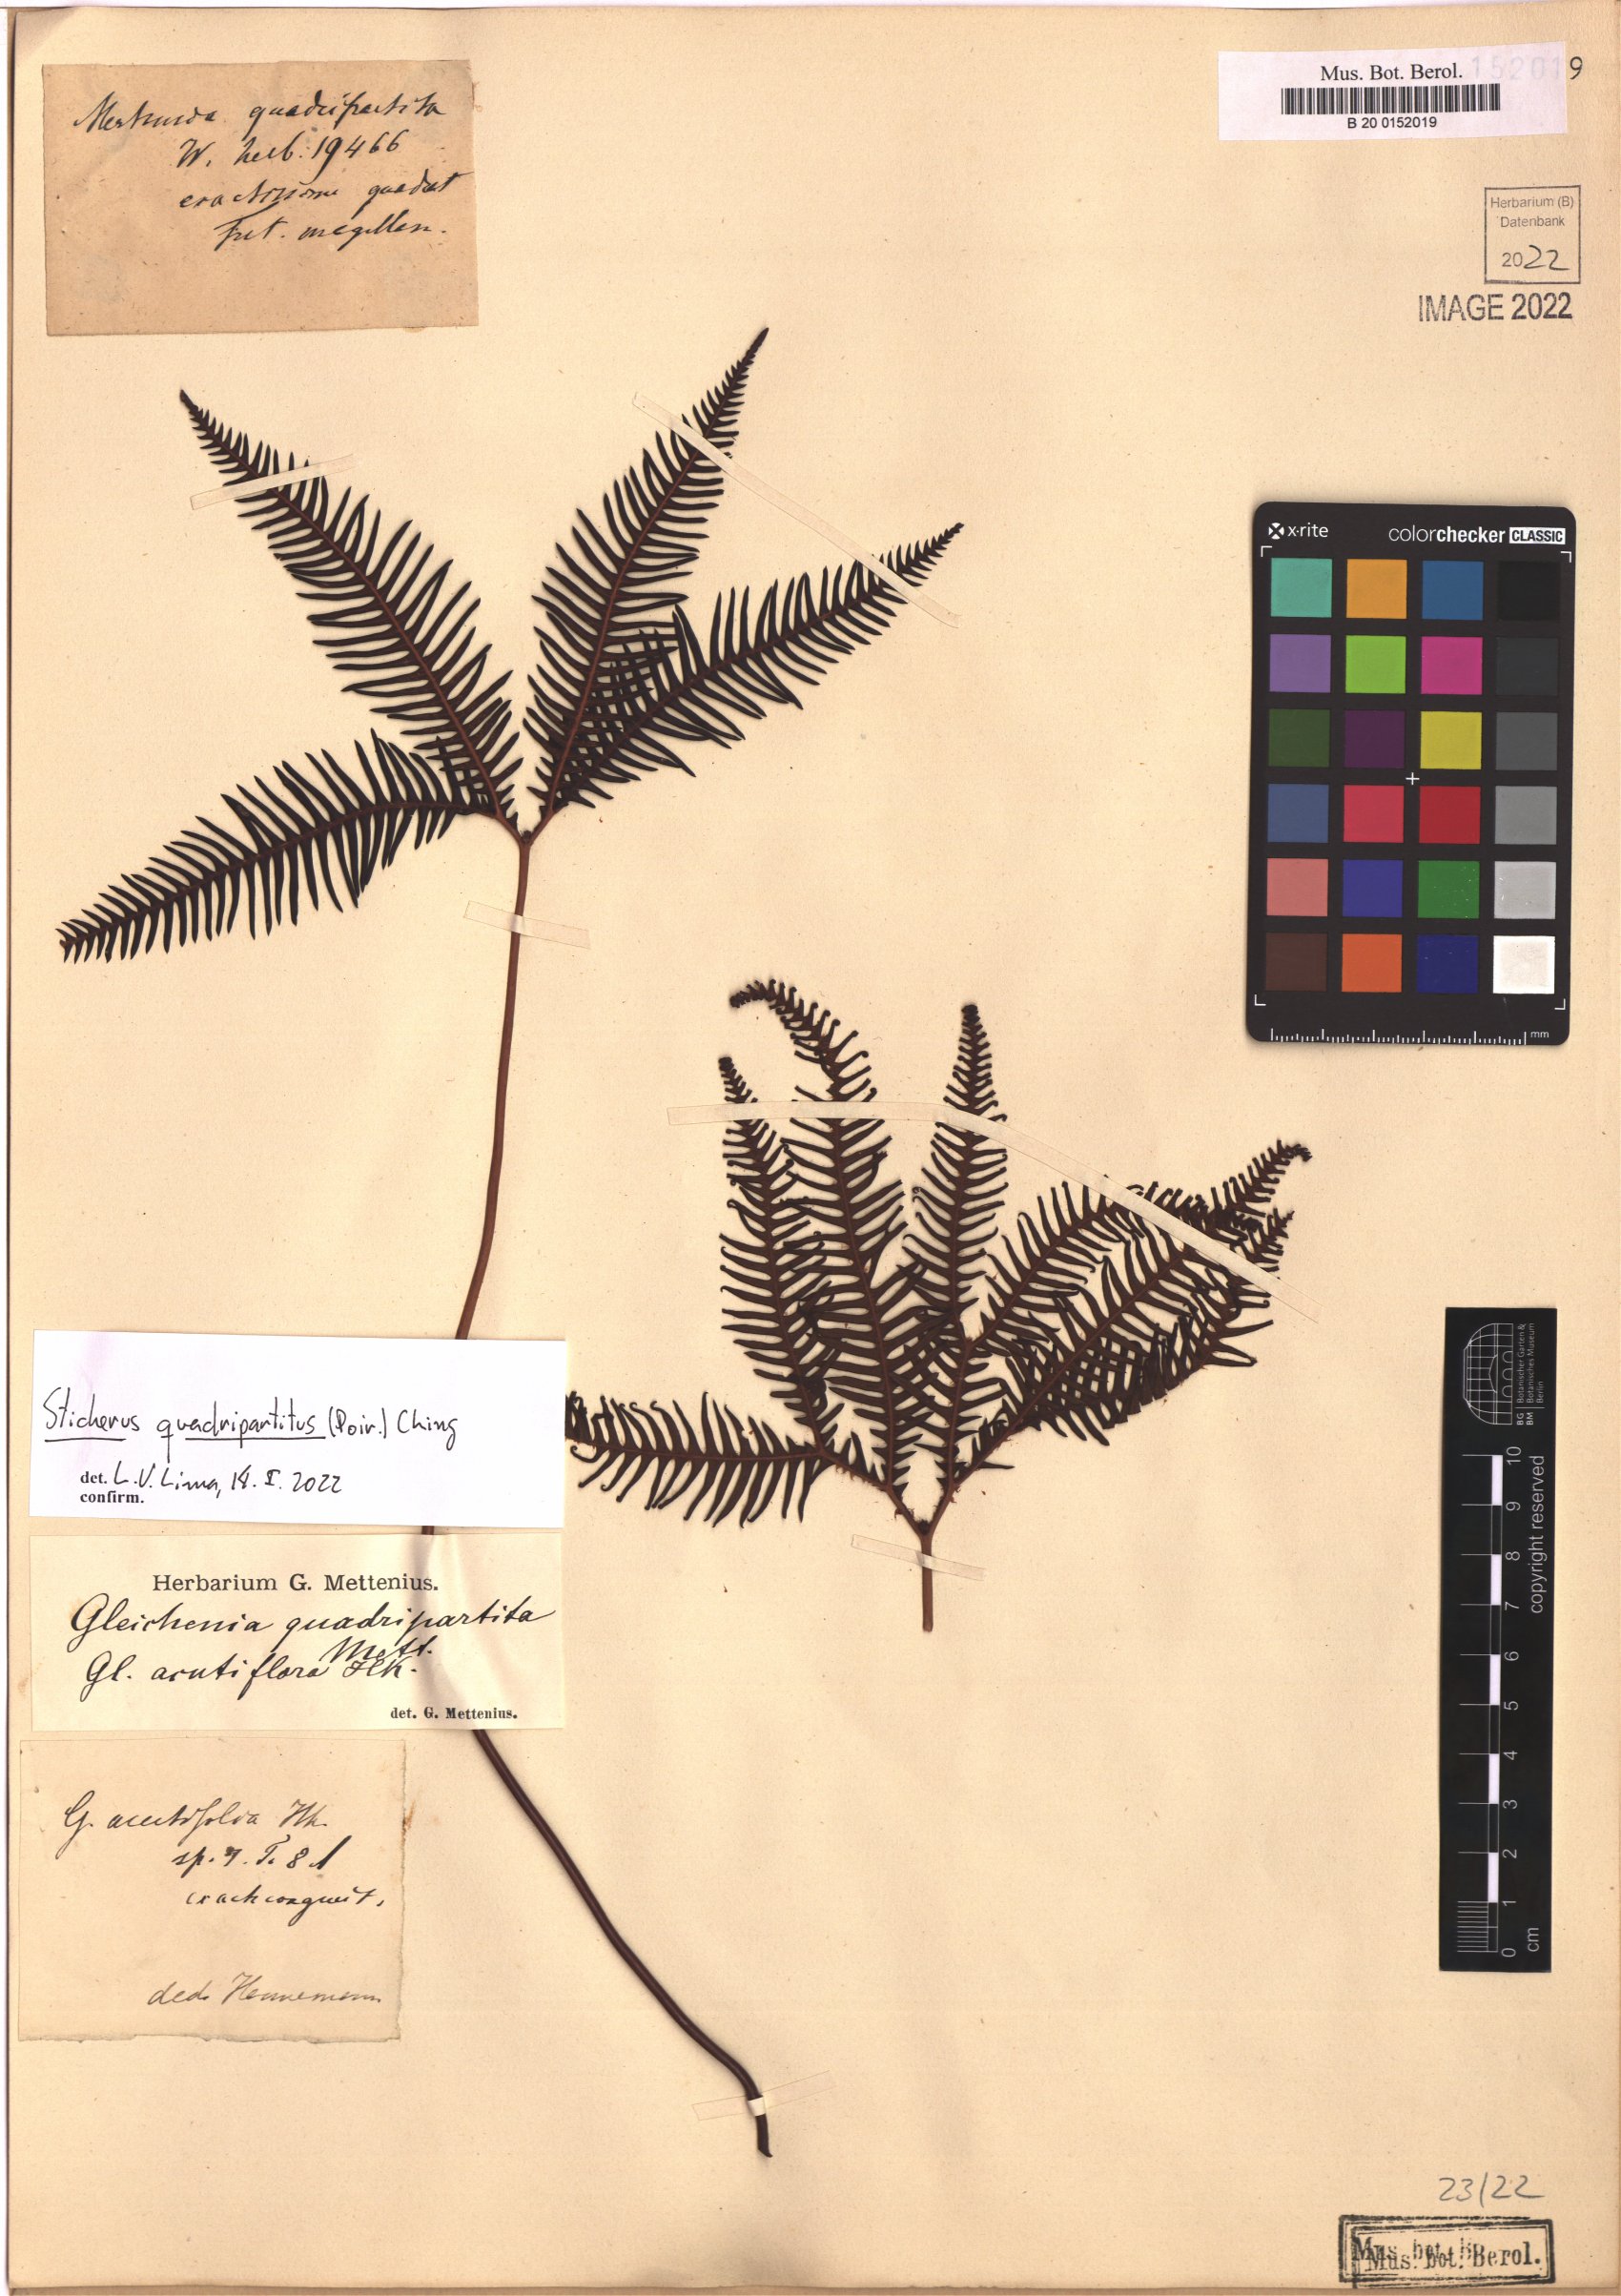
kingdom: Plantae
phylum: Tracheophyta
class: Polypodiopsida
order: Gleicheniales
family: Gleicheniaceae
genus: Sticherus
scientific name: Sticherus quadripartitus
